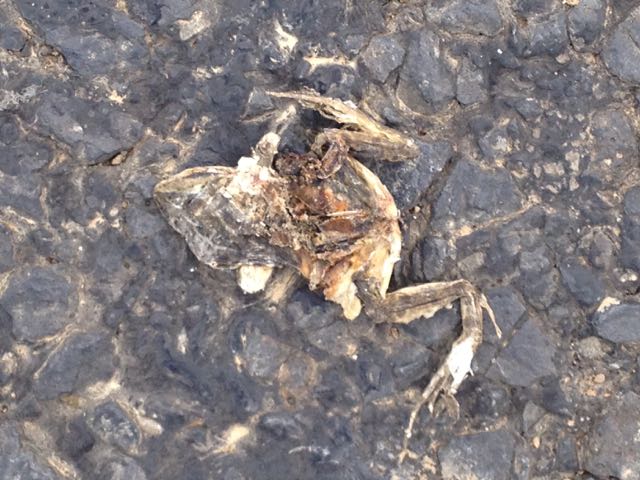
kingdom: Animalia
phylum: Chordata
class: Amphibia
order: Anura
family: Ranidae
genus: Rana
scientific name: Rana dalmatina
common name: Agile frog
